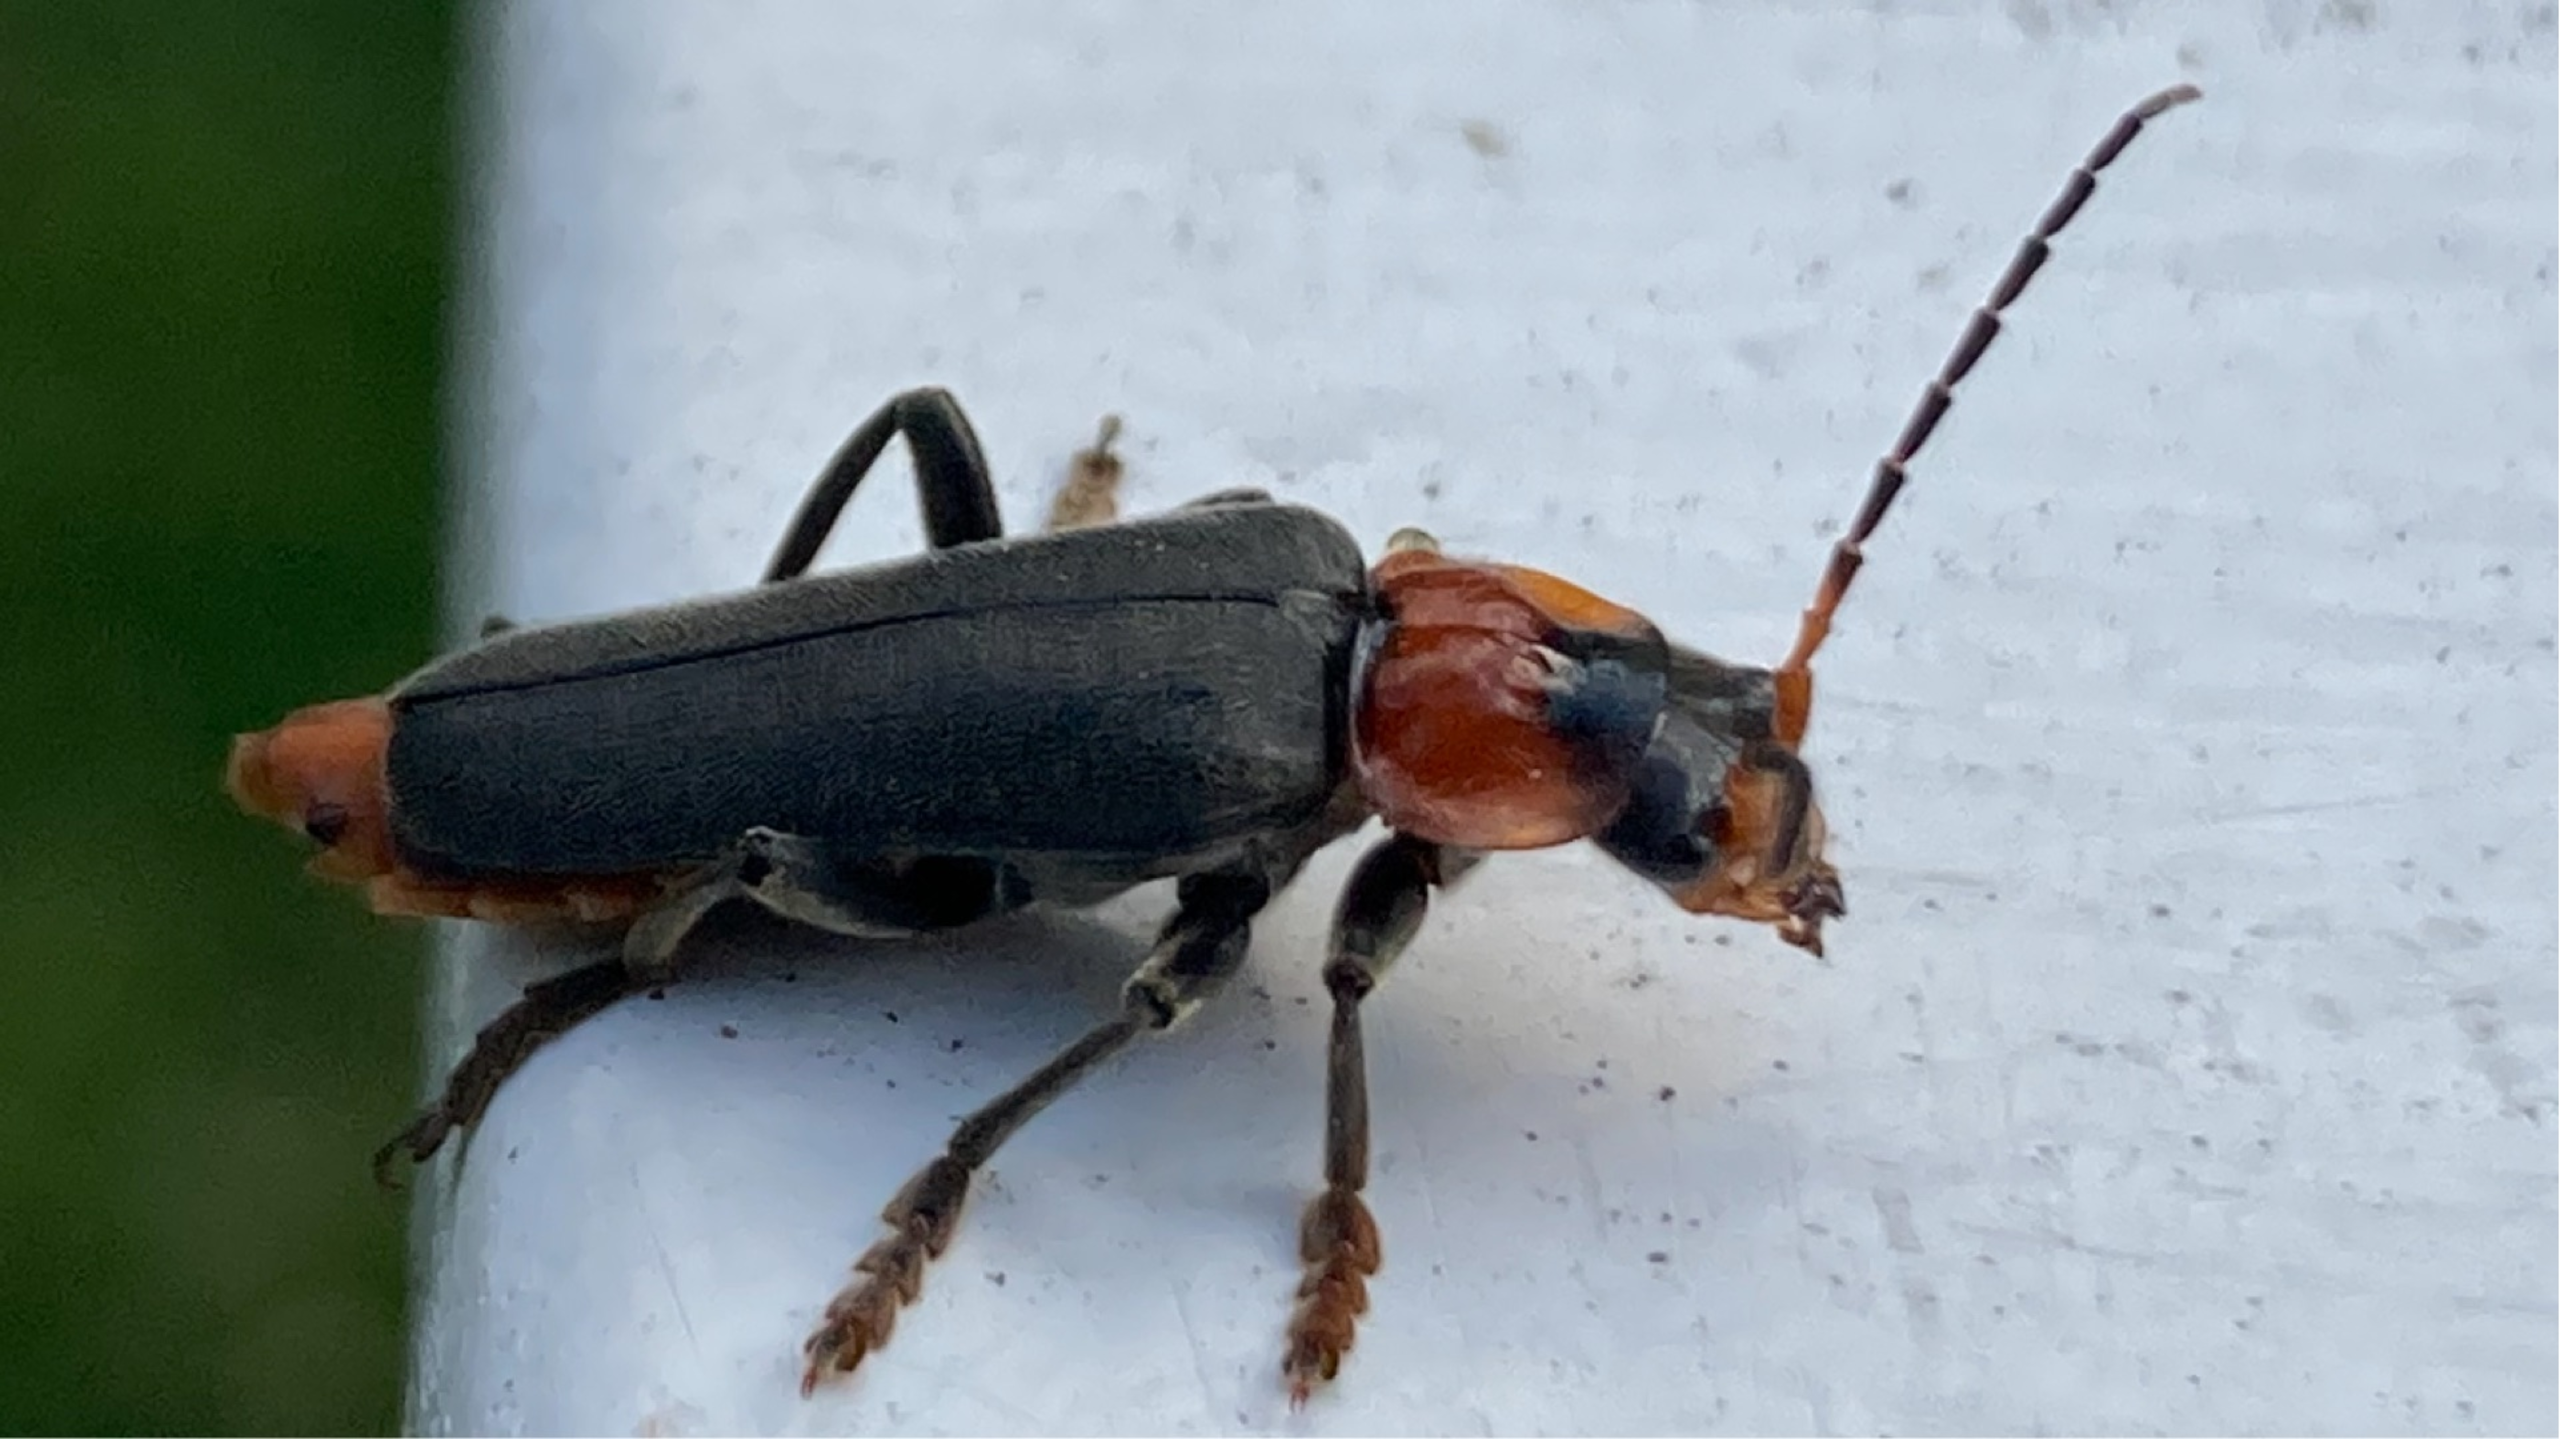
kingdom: Animalia
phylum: Arthropoda
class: Insecta
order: Coleoptera
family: Cantharidae
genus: Cantharis
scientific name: Cantharis fusca
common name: Stor blødvinge
